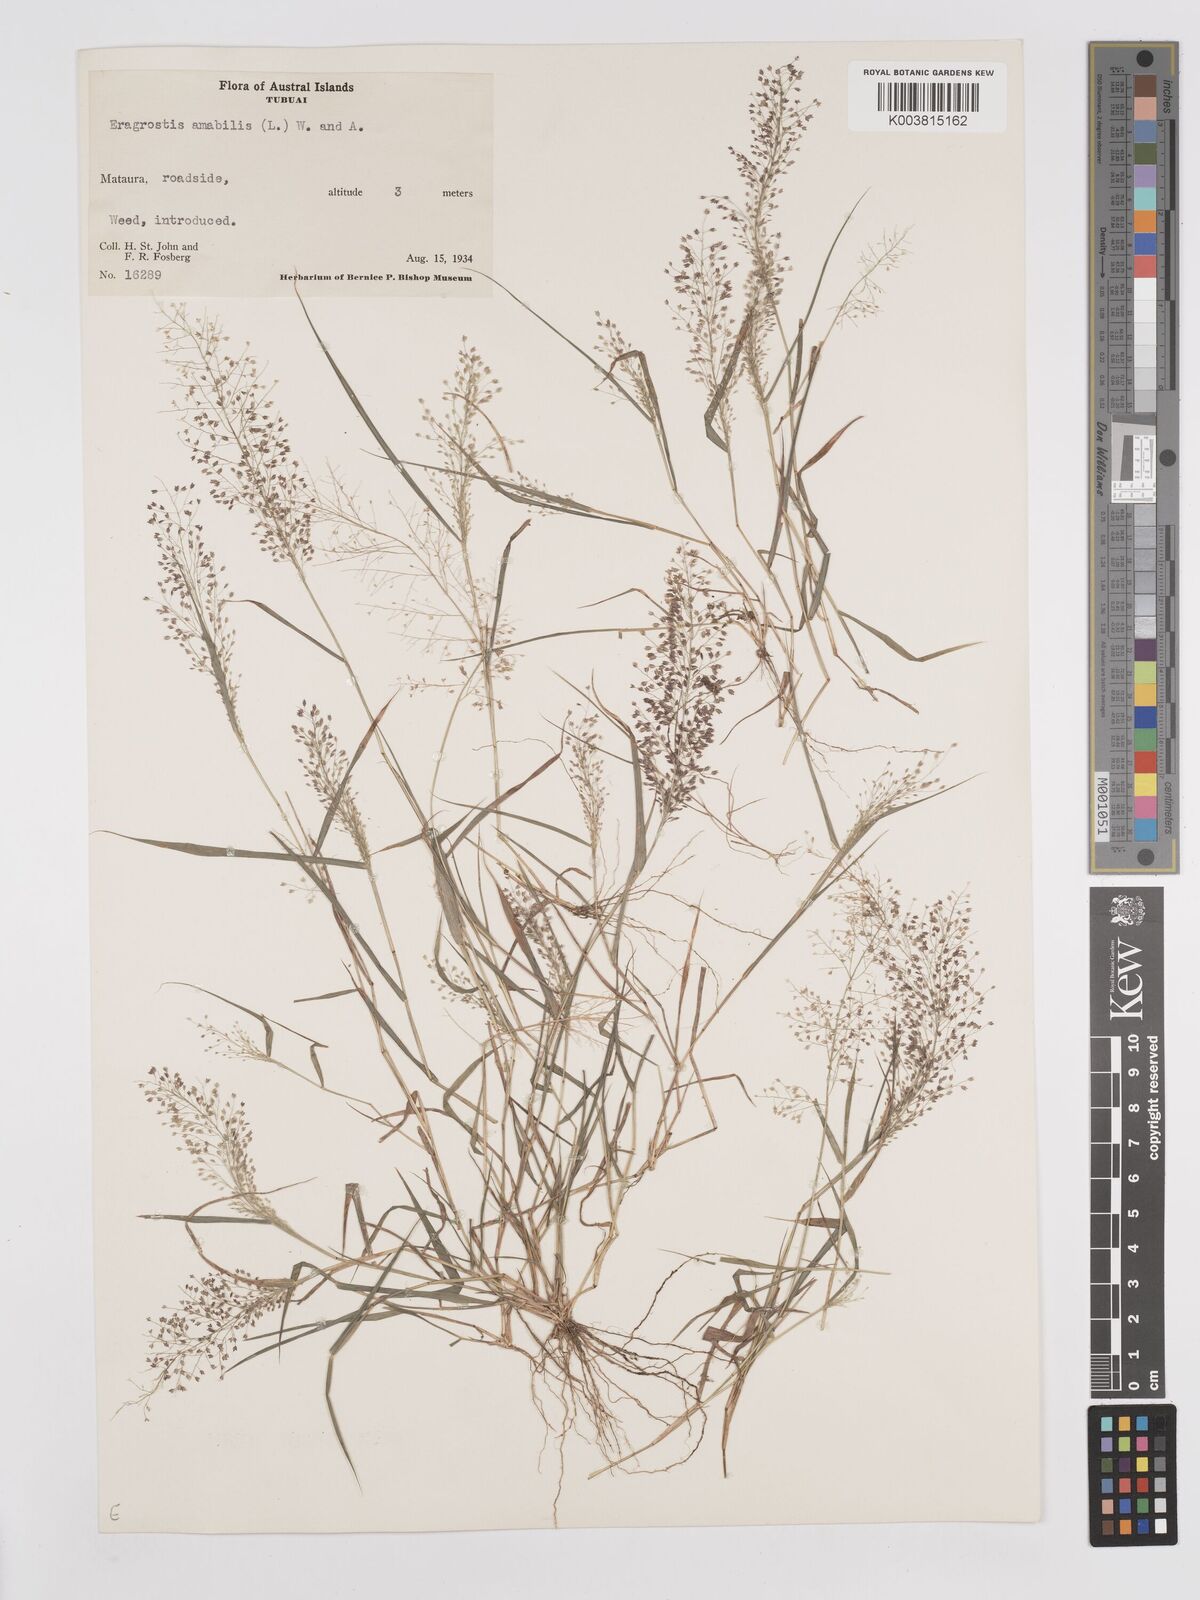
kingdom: Plantae
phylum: Tracheophyta
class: Liliopsida
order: Poales
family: Poaceae
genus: Eragrostis
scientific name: Eragrostis tenella
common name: Japanese lovegrass
